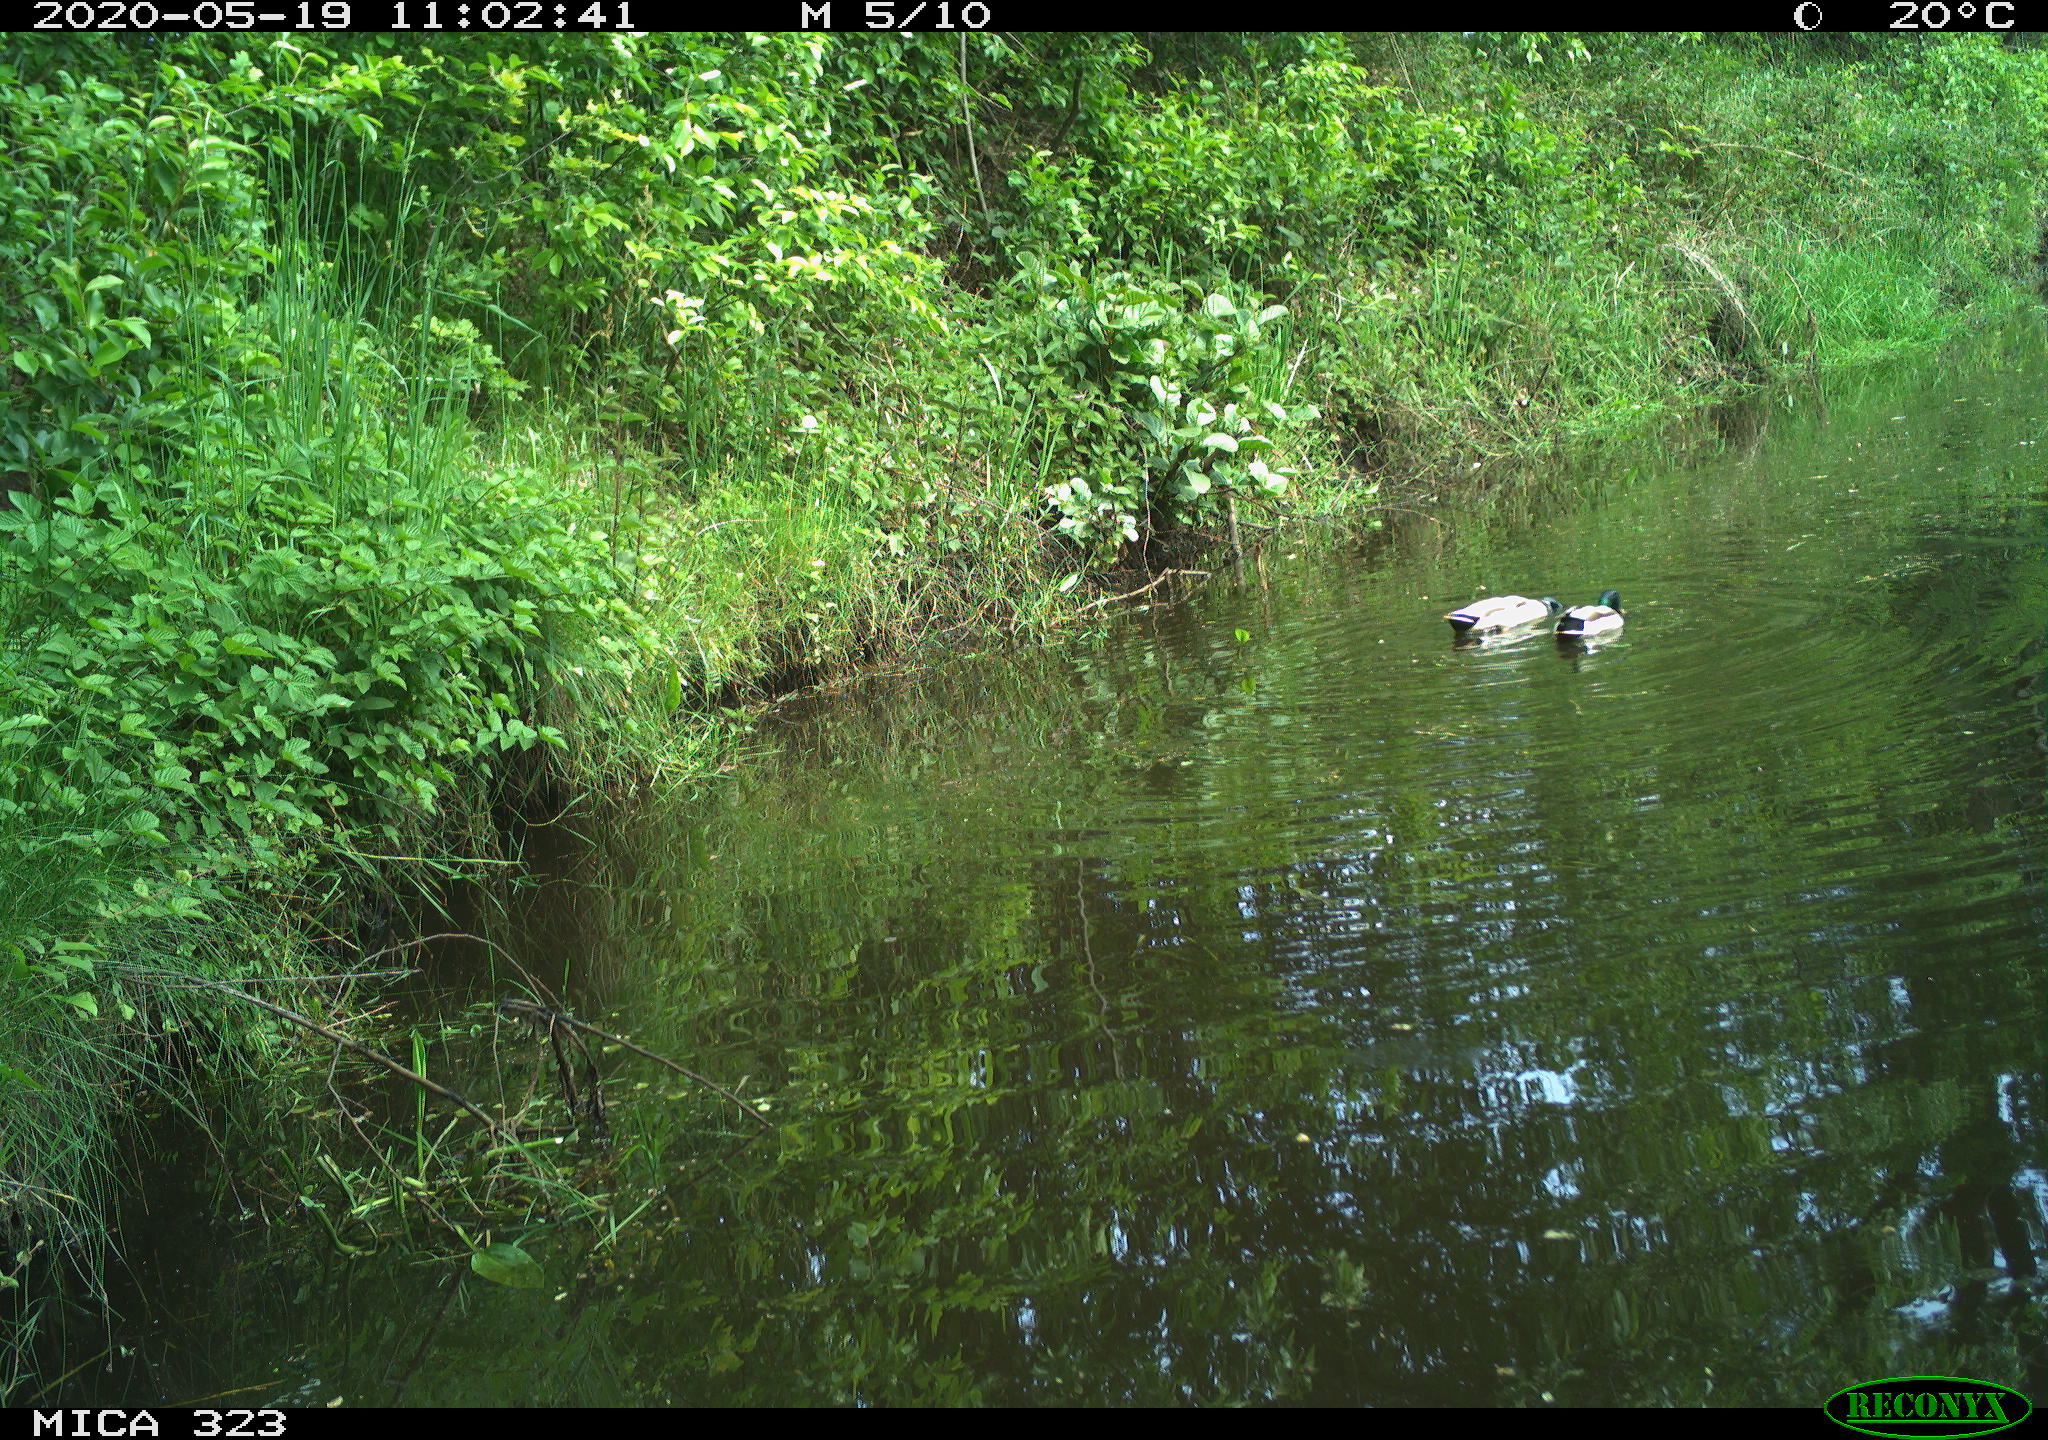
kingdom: Animalia
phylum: Chordata
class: Aves
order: Anseriformes
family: Anatidae
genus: Anas
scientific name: Anas platyrhynchos
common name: Mallard
